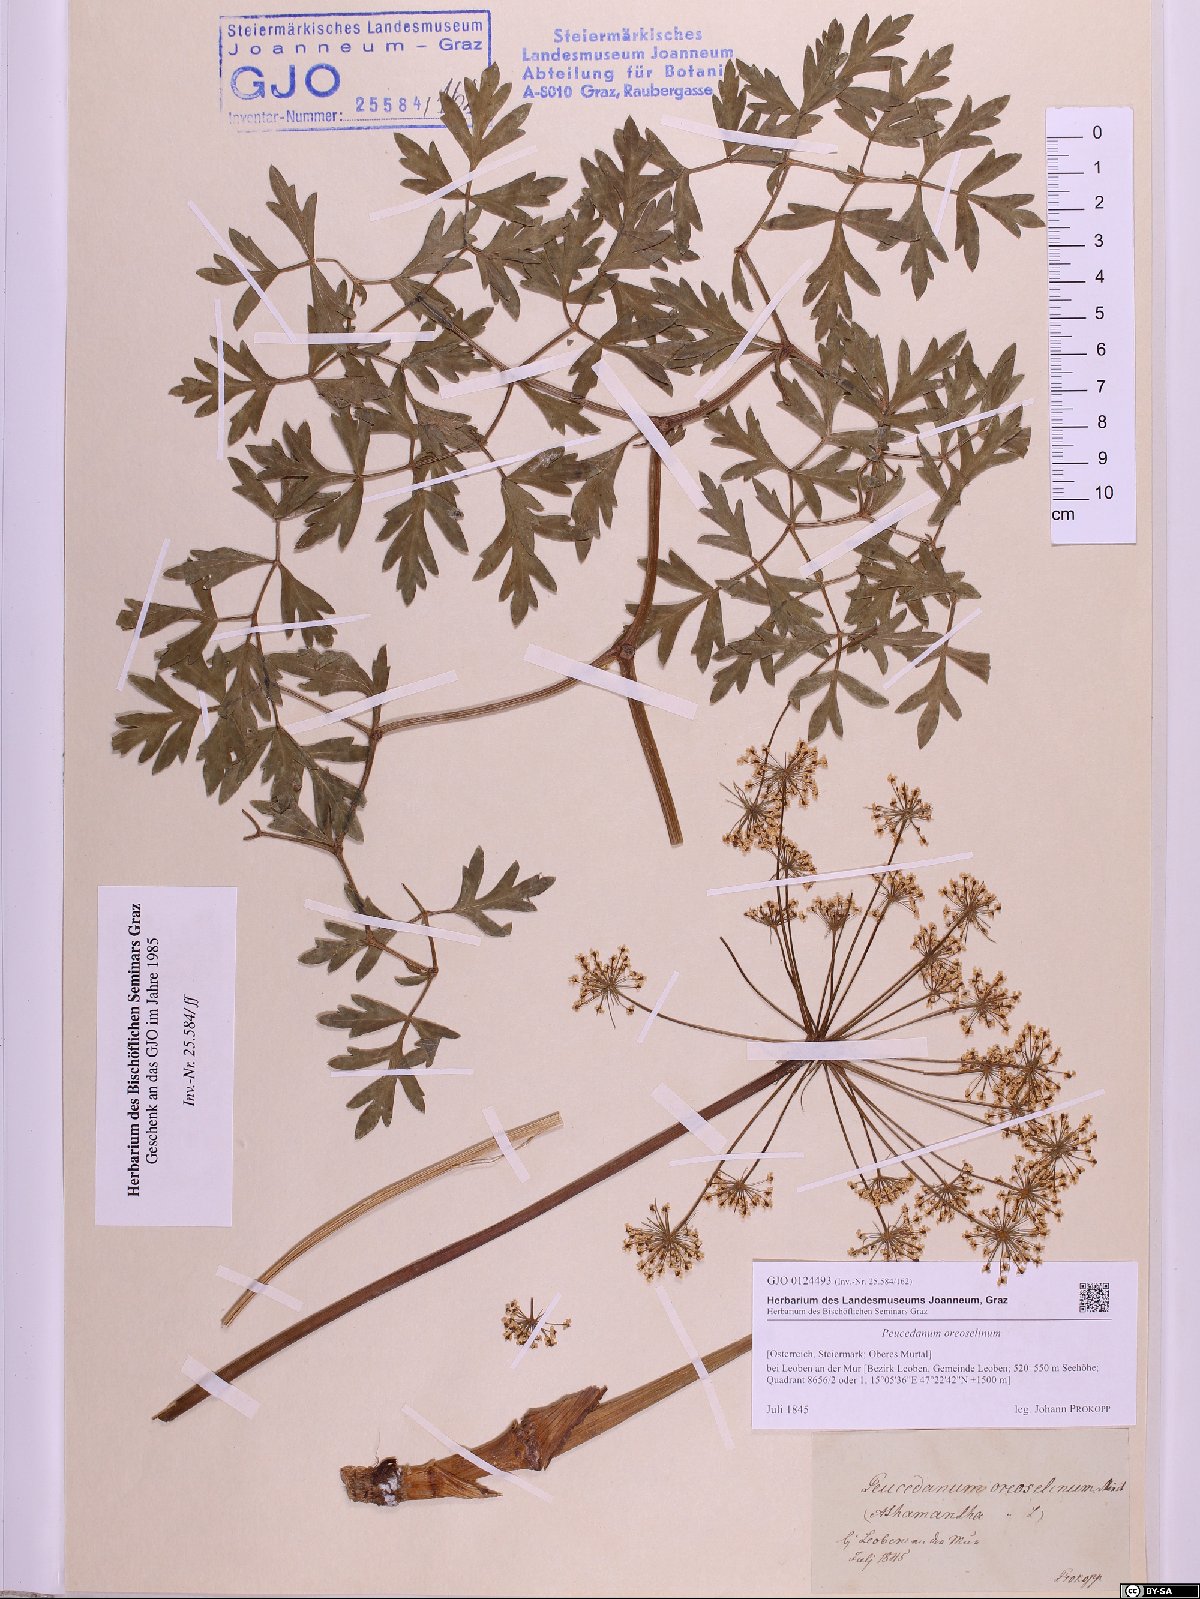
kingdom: Plantae
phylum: Tracheophyta
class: Magnoliopsida
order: Apiales
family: Apiaceae
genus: Oreoselinum
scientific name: Oreoselinum nigrum
